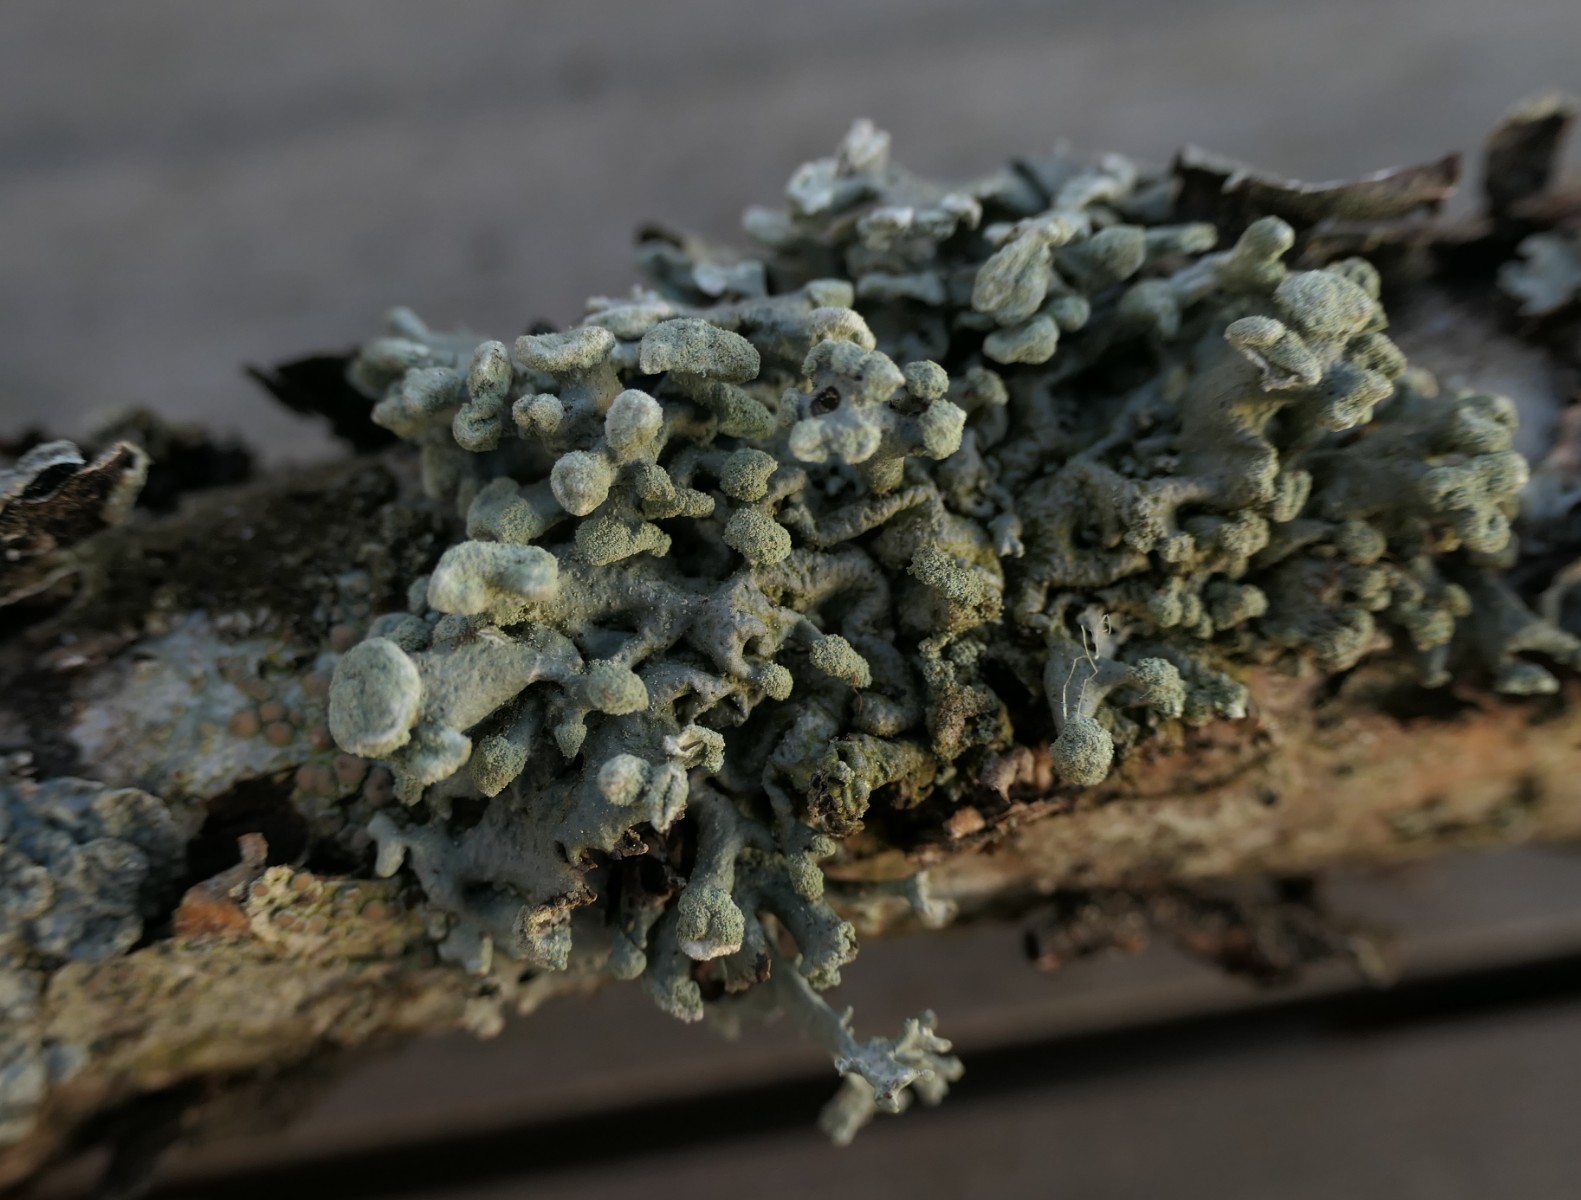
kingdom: Fungi
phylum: Ascomycota
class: Lecanoromycetes
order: Lecanorales
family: Parmeliaceae
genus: Hypogymnia
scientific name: Hypogymnia tubulosa
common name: finger-kvistlav
